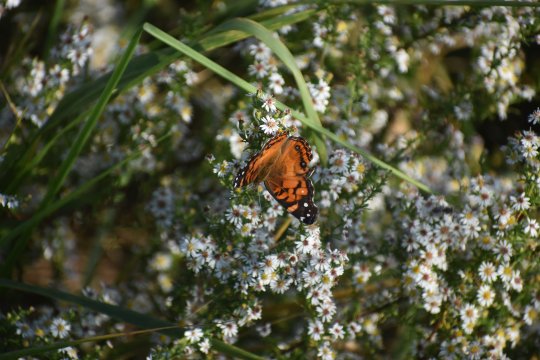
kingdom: Animalia
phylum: Arthropoda
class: Insecta
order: Lepidoptera
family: Nymphalidae
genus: Vanessa
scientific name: Vanessa virginiensis
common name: American Lady
